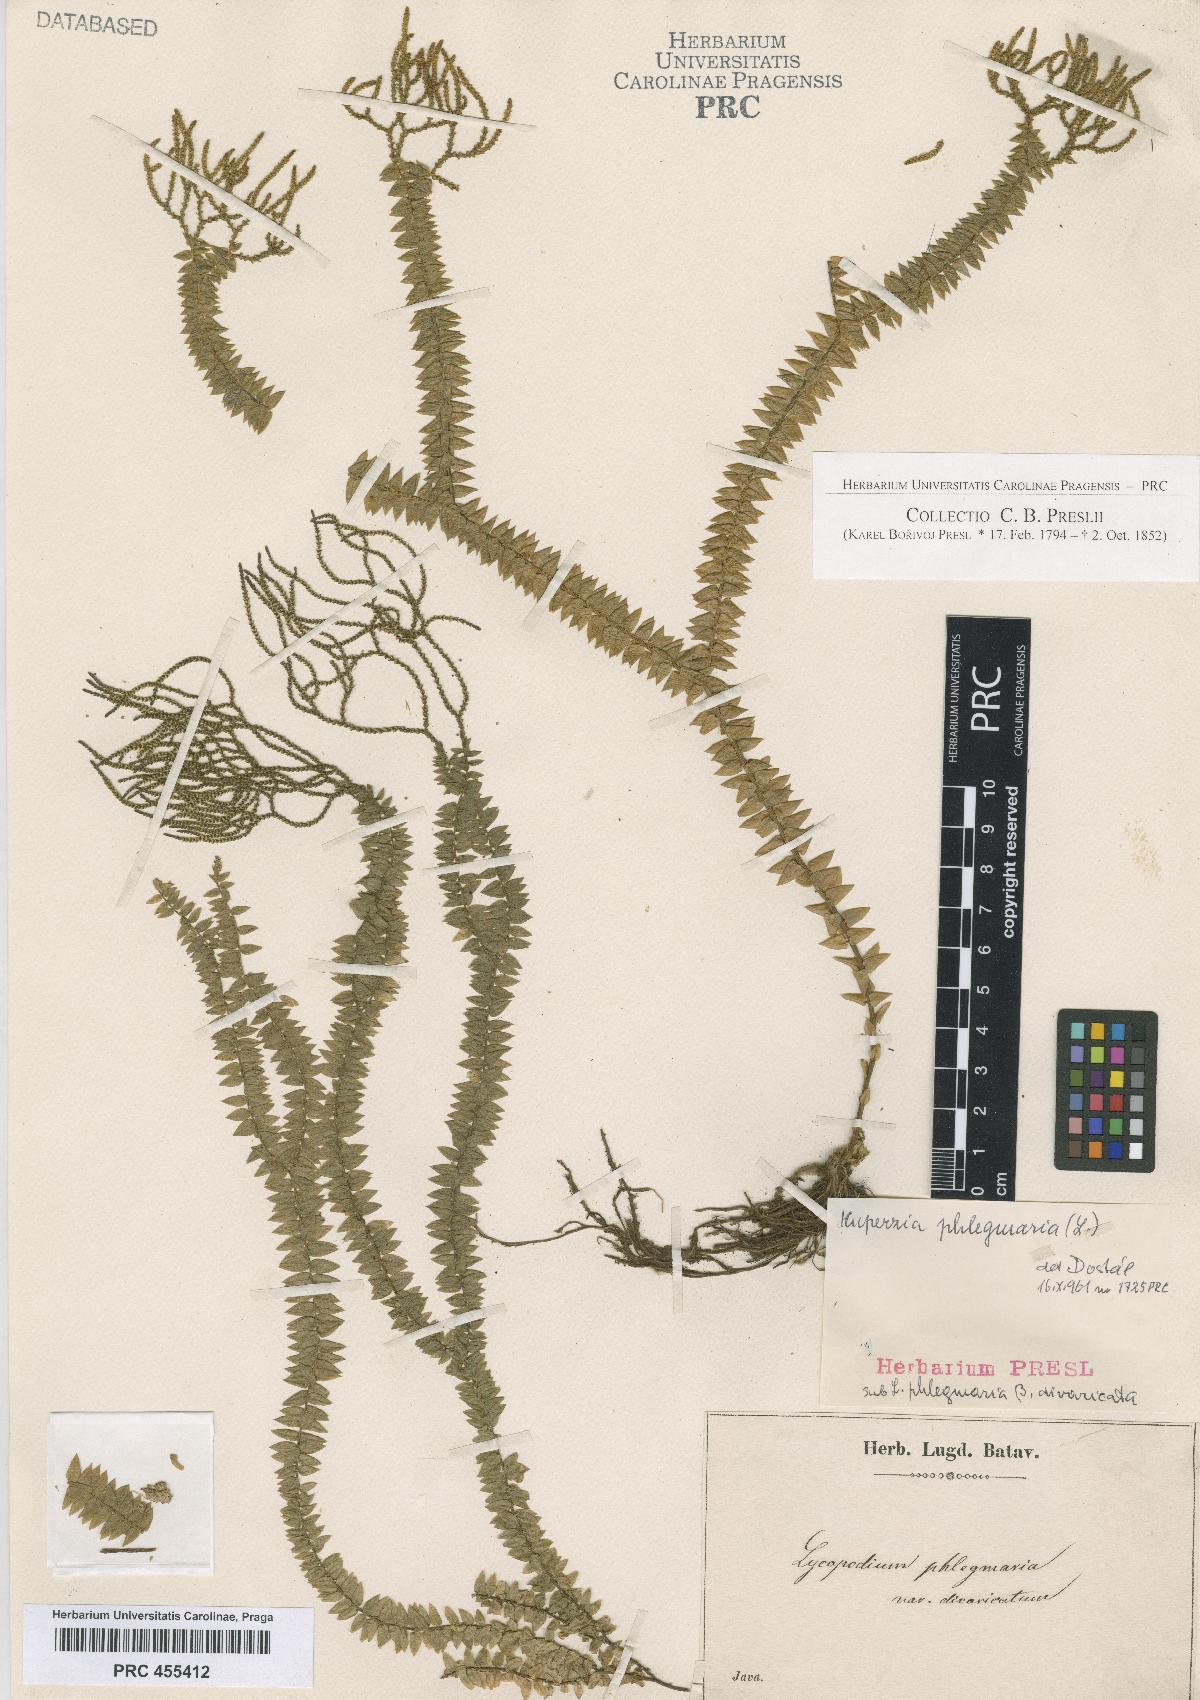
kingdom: Plantae
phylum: Tracheophyta
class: Lycopodiopsida
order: Lycopodiales
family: Lycopodiaceae
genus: Phlegmariurus
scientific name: Phlegmariurus phlegmaria
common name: Coarse tassel-fern
